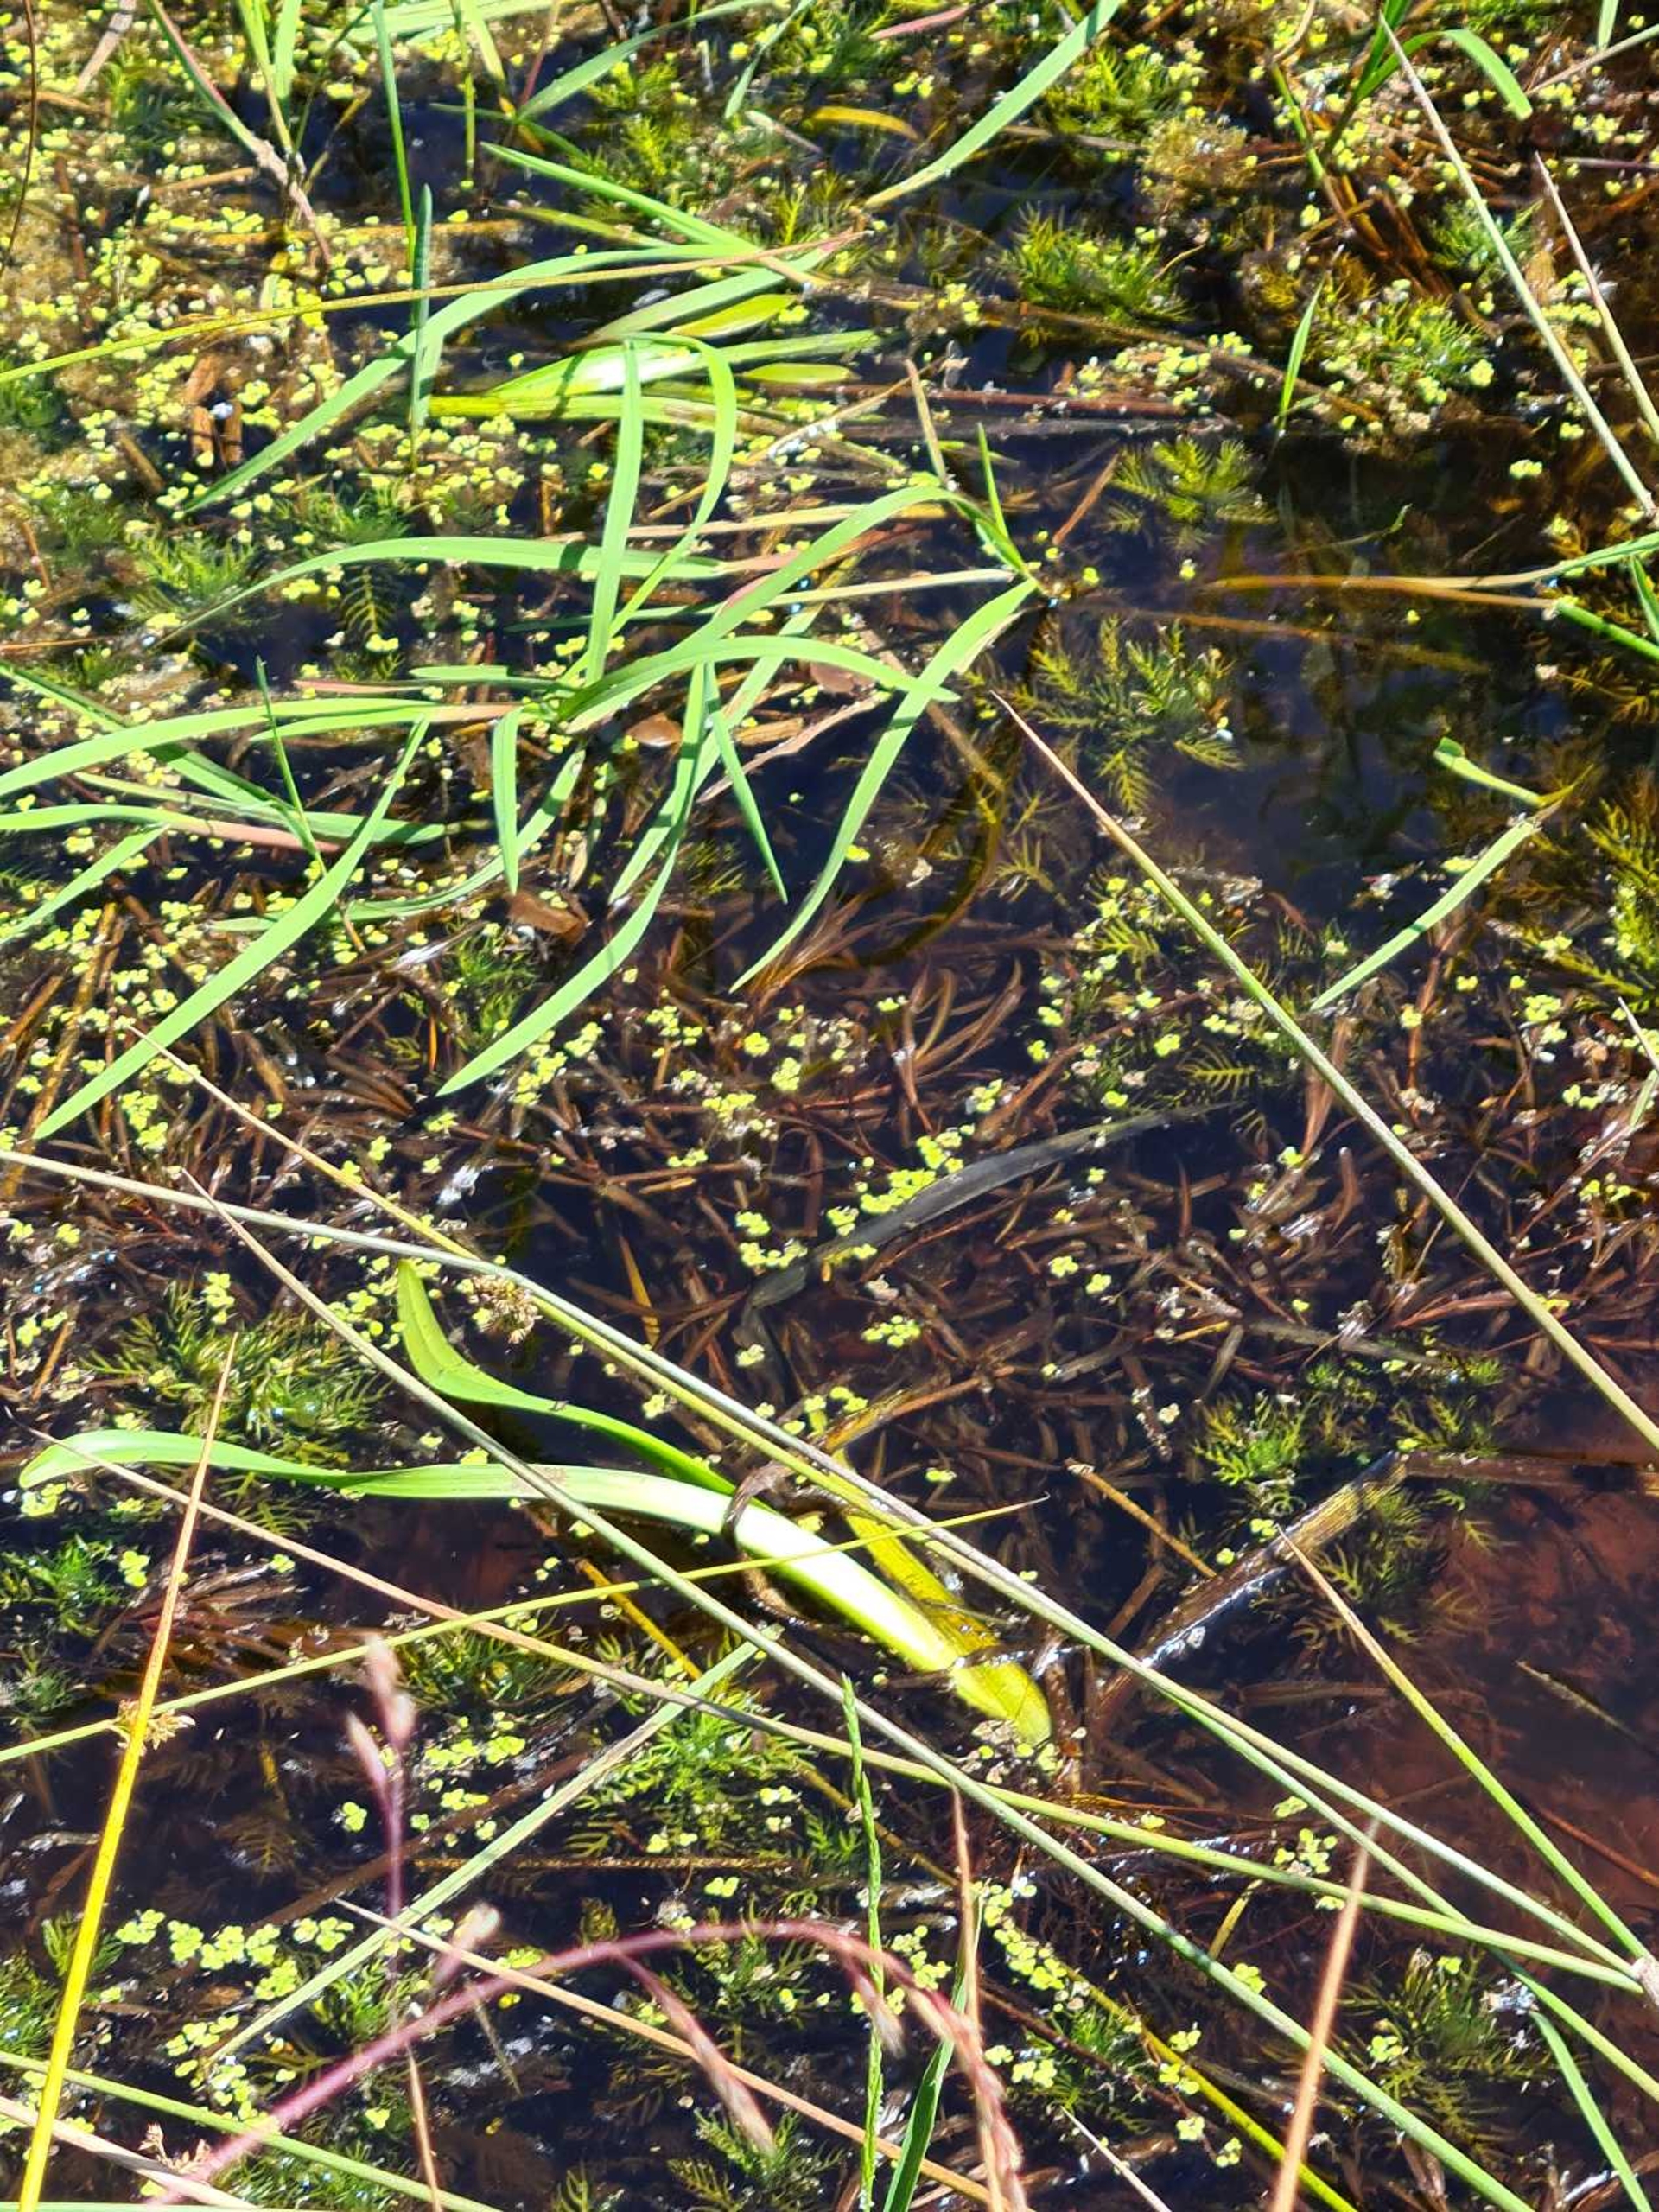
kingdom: Plantae
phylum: Tracheophyta
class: Magnoliopsida
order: Ericales
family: Primulaceae
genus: Hottonia
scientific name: Hottonia palustris
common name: Vandrøllike
